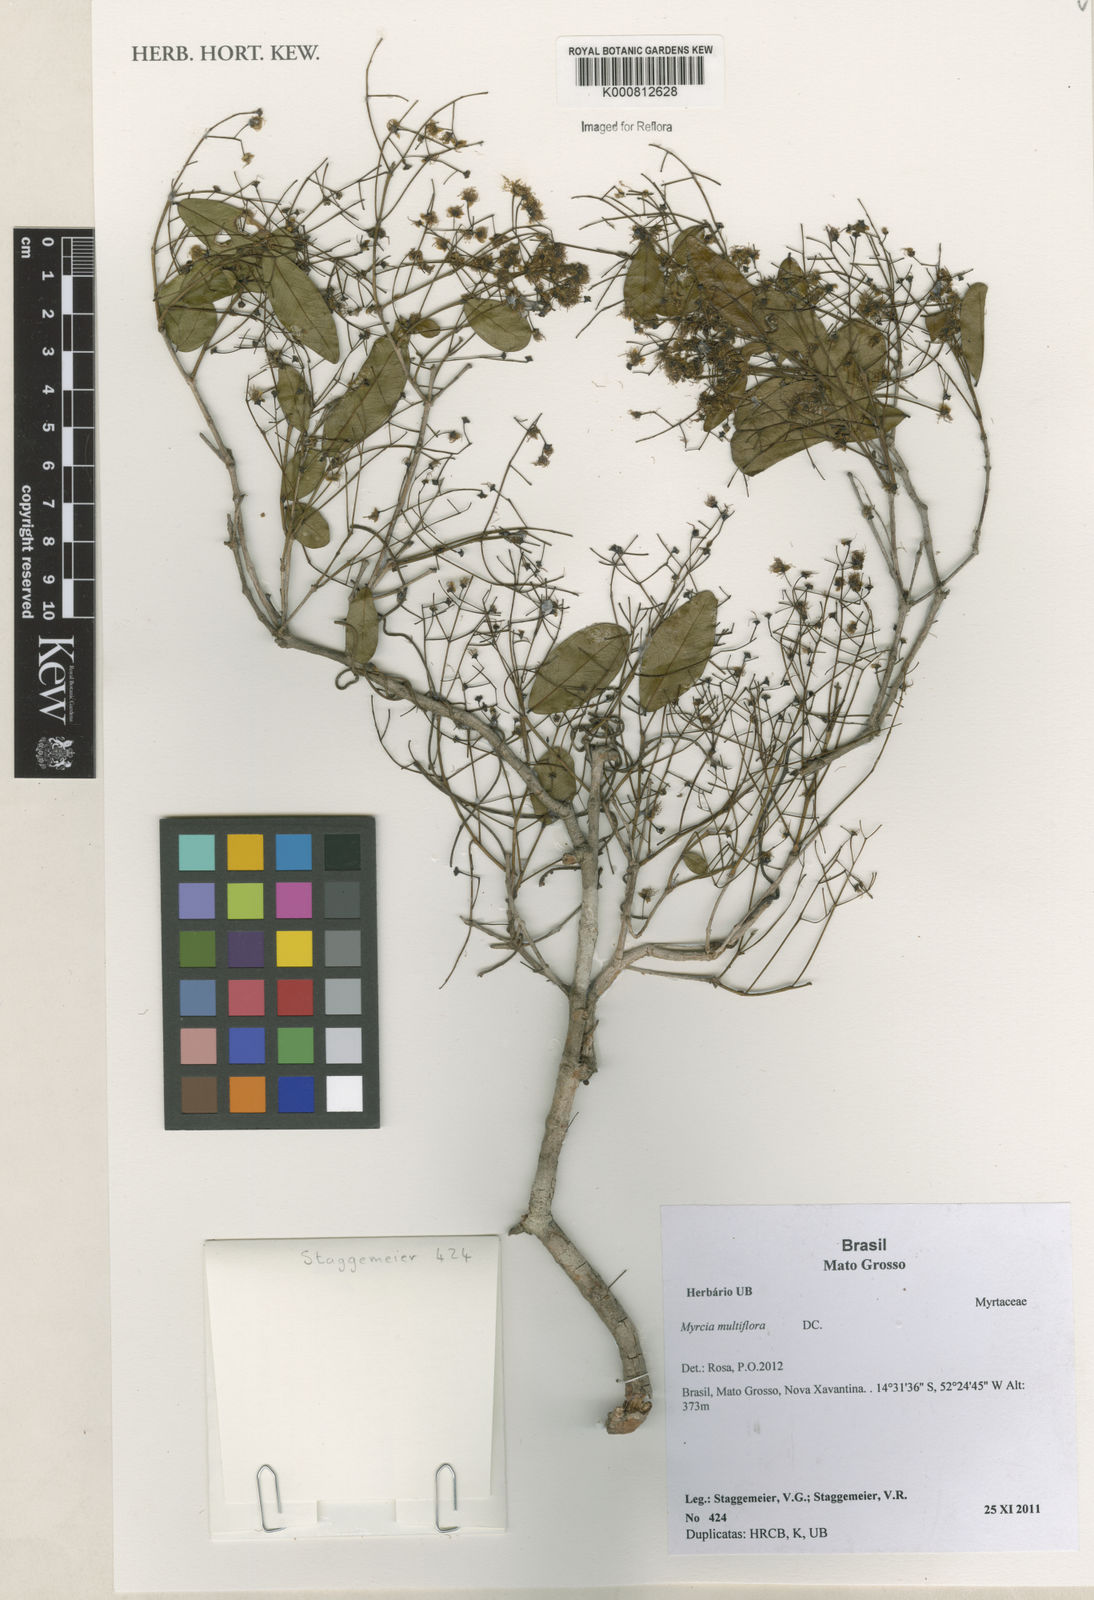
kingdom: Plantae
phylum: Tracheophyta
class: Magnoliopsida
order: Myrtales
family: Myrtaceae
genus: Myrcia
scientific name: Myrcia multiflora
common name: Pedra hume
